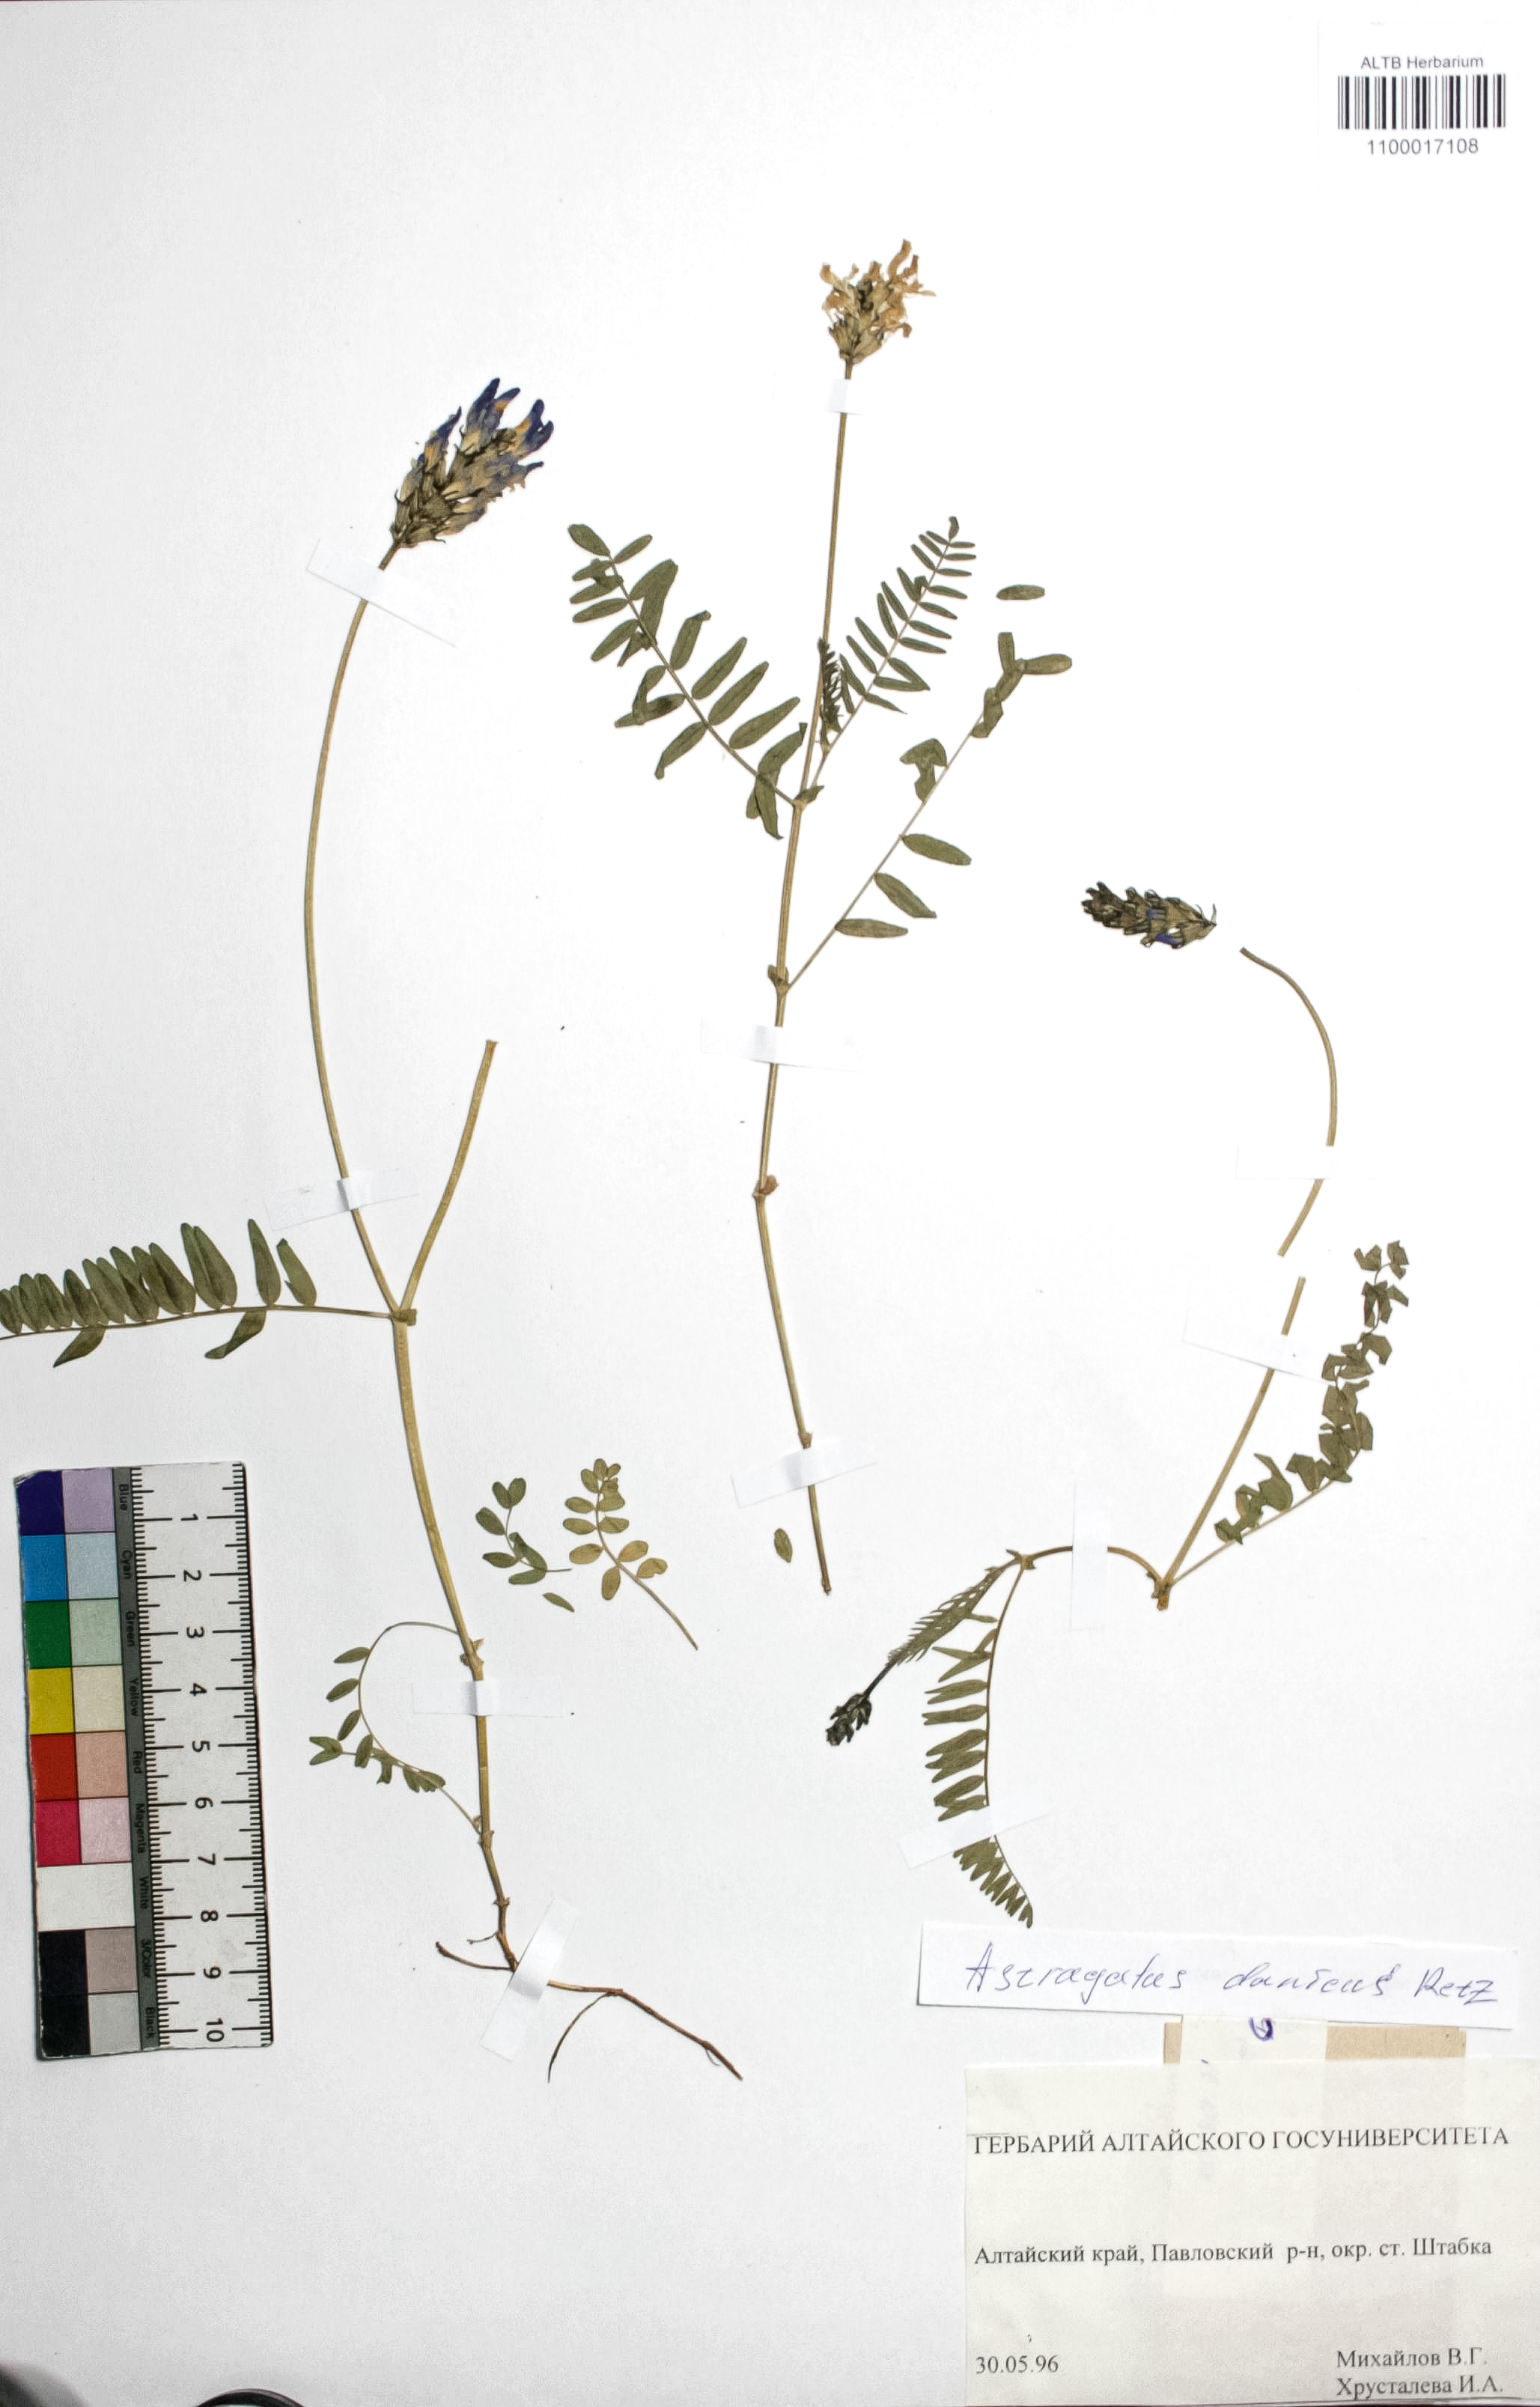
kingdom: Plantae
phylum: Tracheophyta
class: Magnoliopsida
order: Fabales
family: Fabaceae
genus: Astragalus
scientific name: Astragalus danicus
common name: Purple milk-vetch
